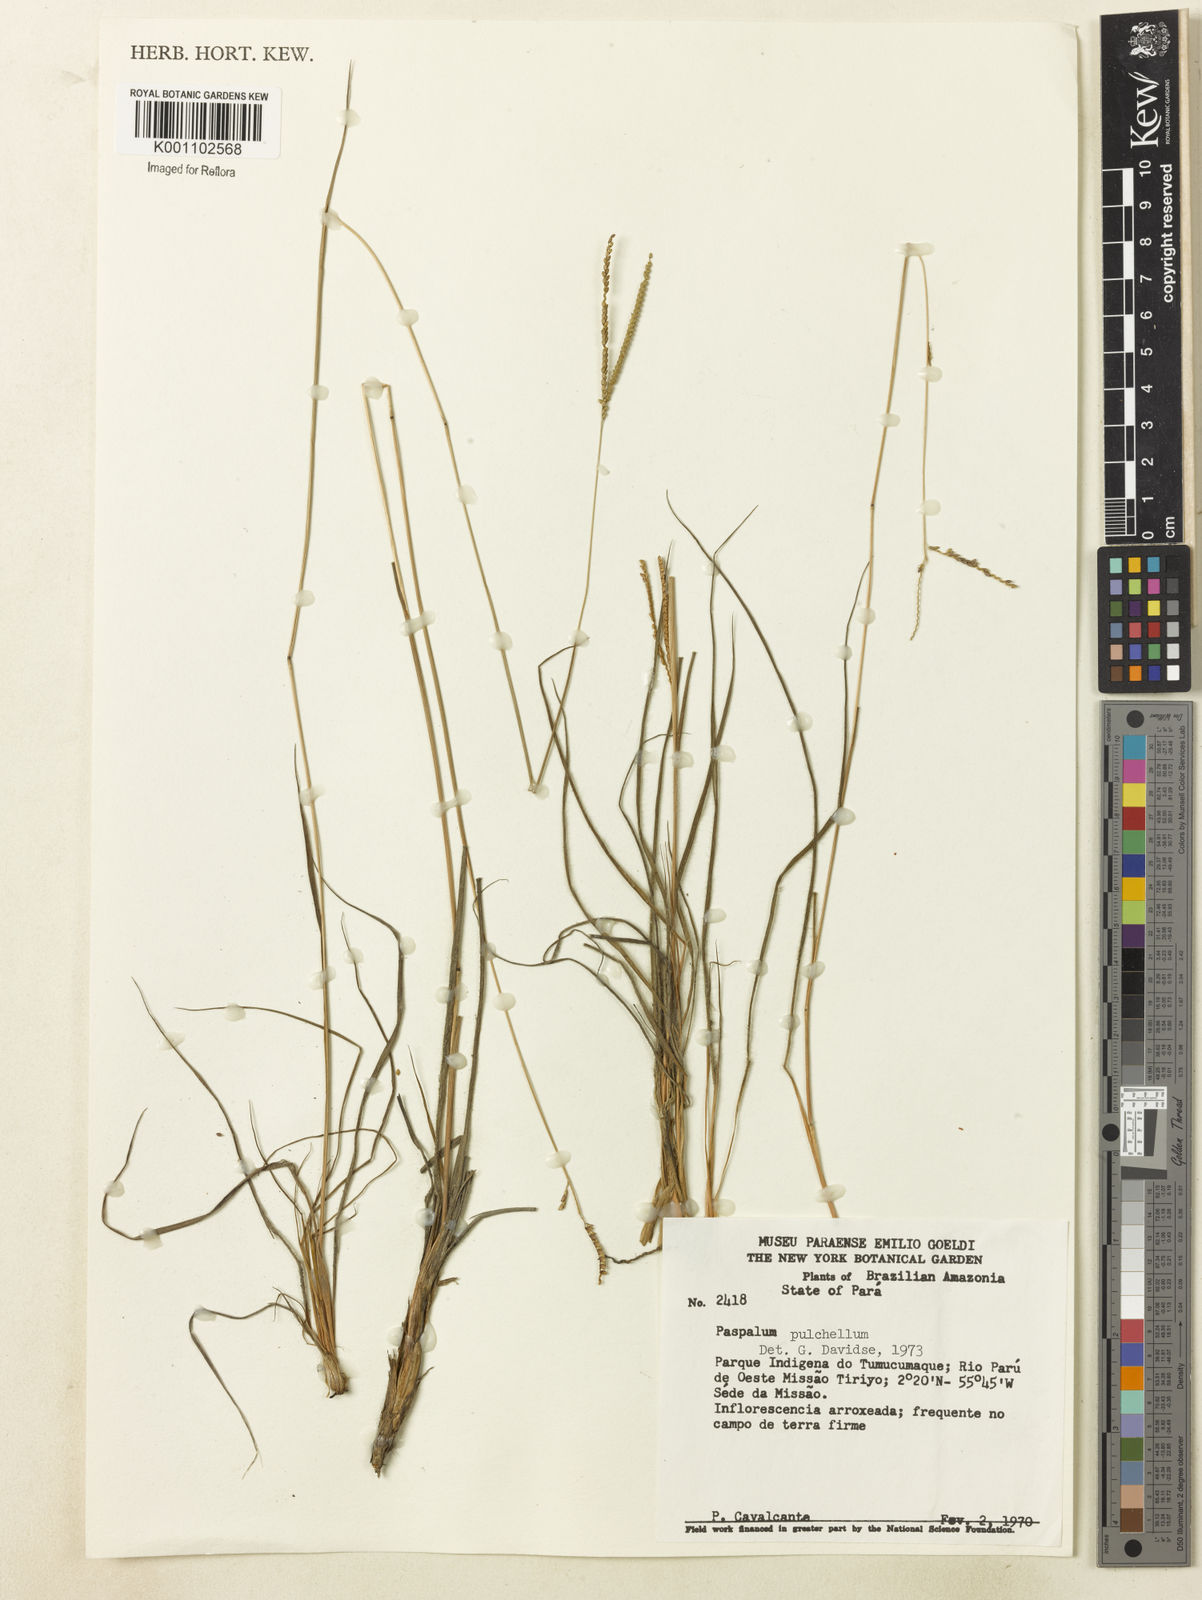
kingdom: Plantae
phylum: Tracheophyta
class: Liliopsida
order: Poales
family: Poaceae
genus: Paspalum
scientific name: Paspalum pulchellum
